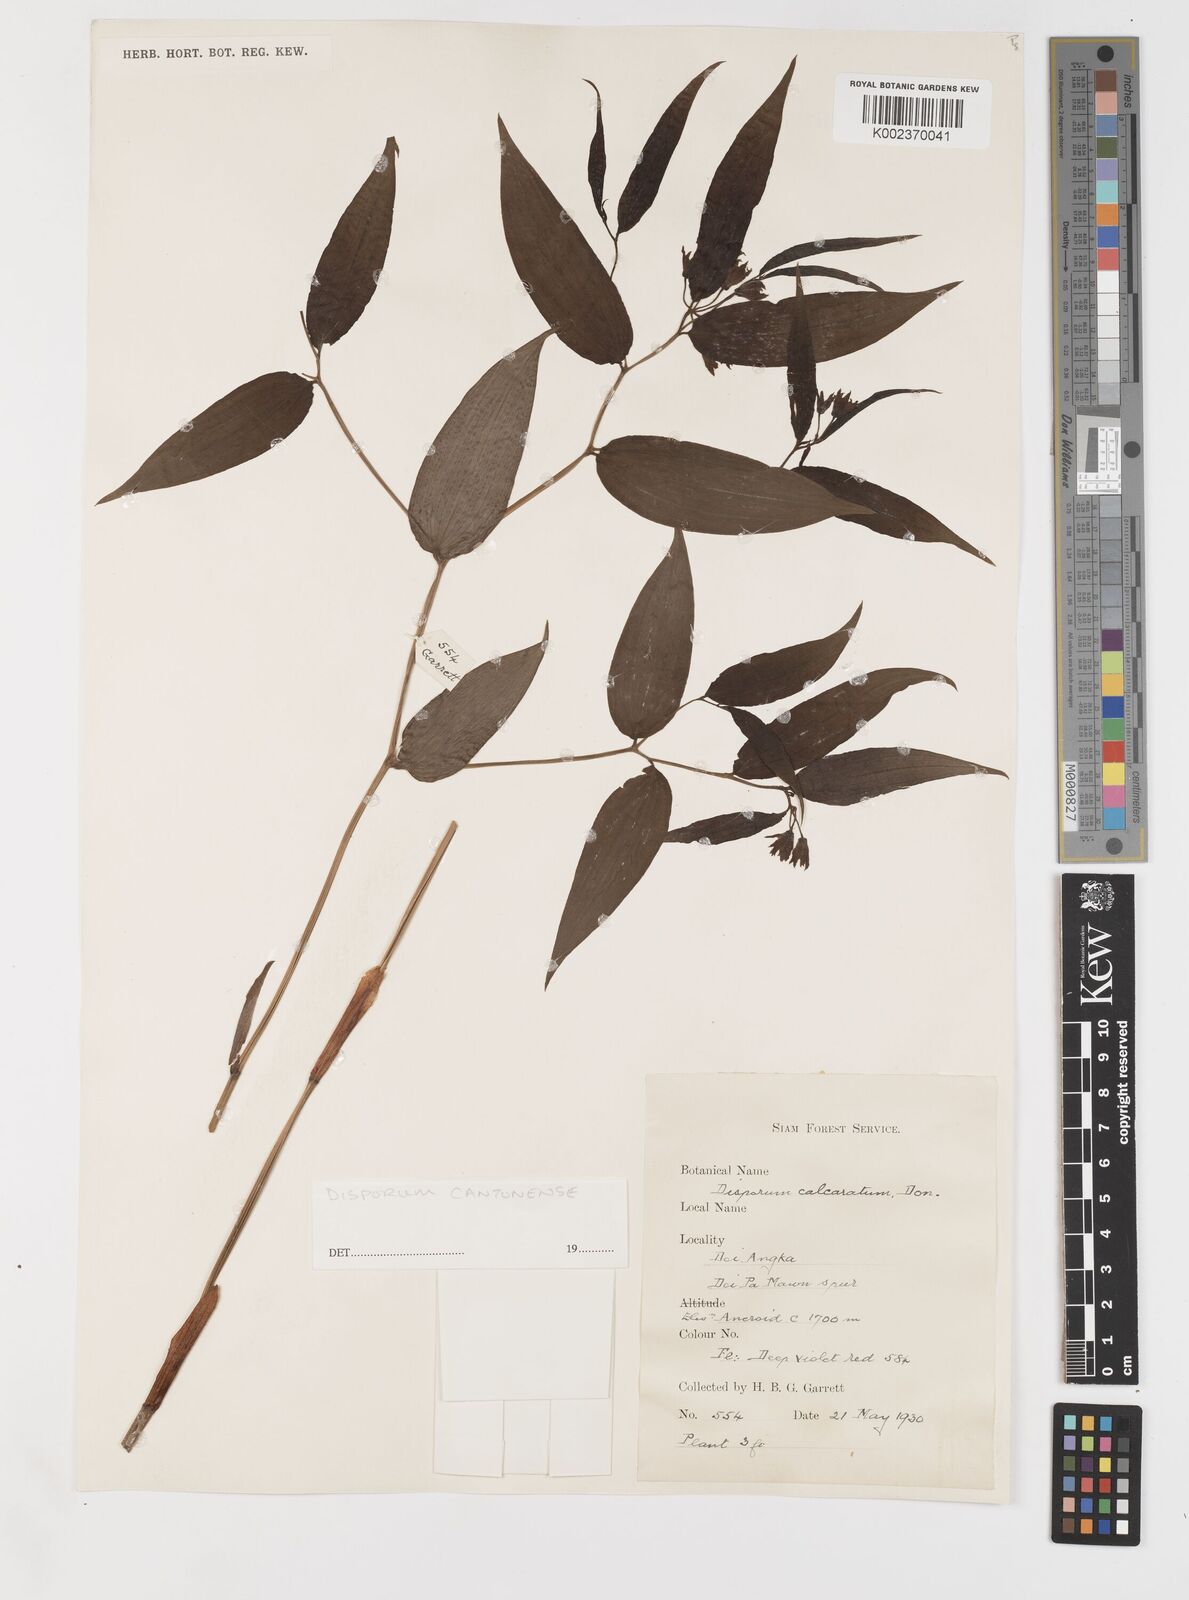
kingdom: Plantae
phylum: Tracheophyta
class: Liliopsida
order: Liliales
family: Colchicaceae
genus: Disporum
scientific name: Disporum cantoniense
